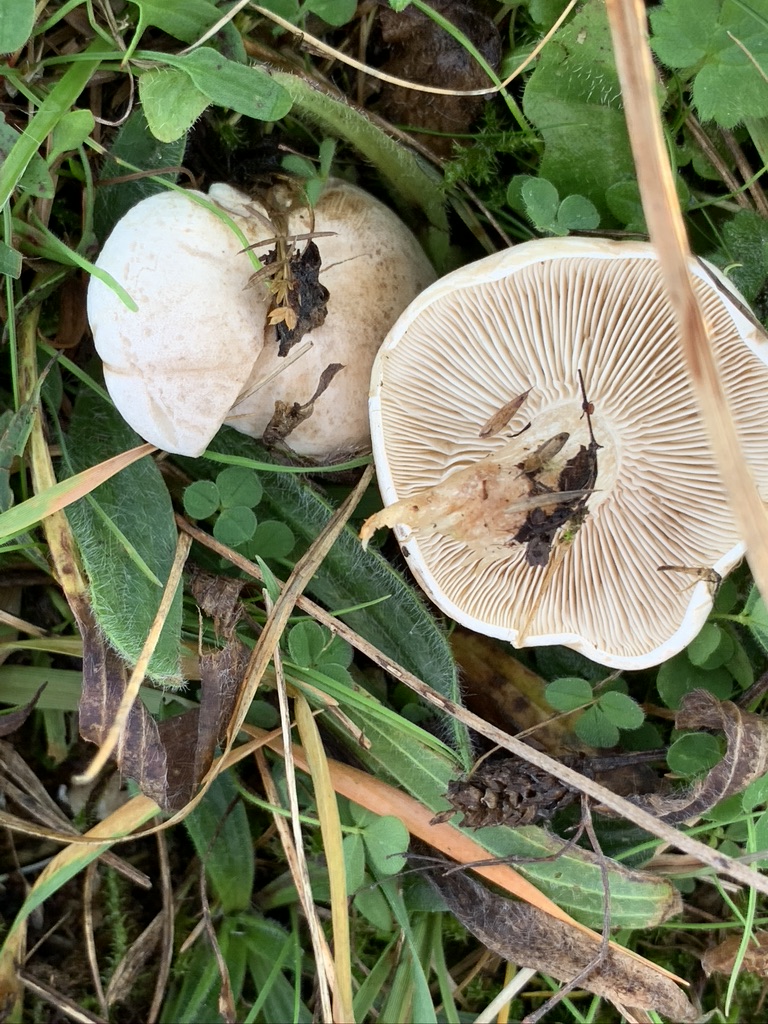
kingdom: Fungi
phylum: Basidiomycota
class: Agaricomycetes
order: Agaricales
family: Tricholomataceae
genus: Lepista
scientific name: Lepista panaeolus
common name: marmoreret hekseringshat
